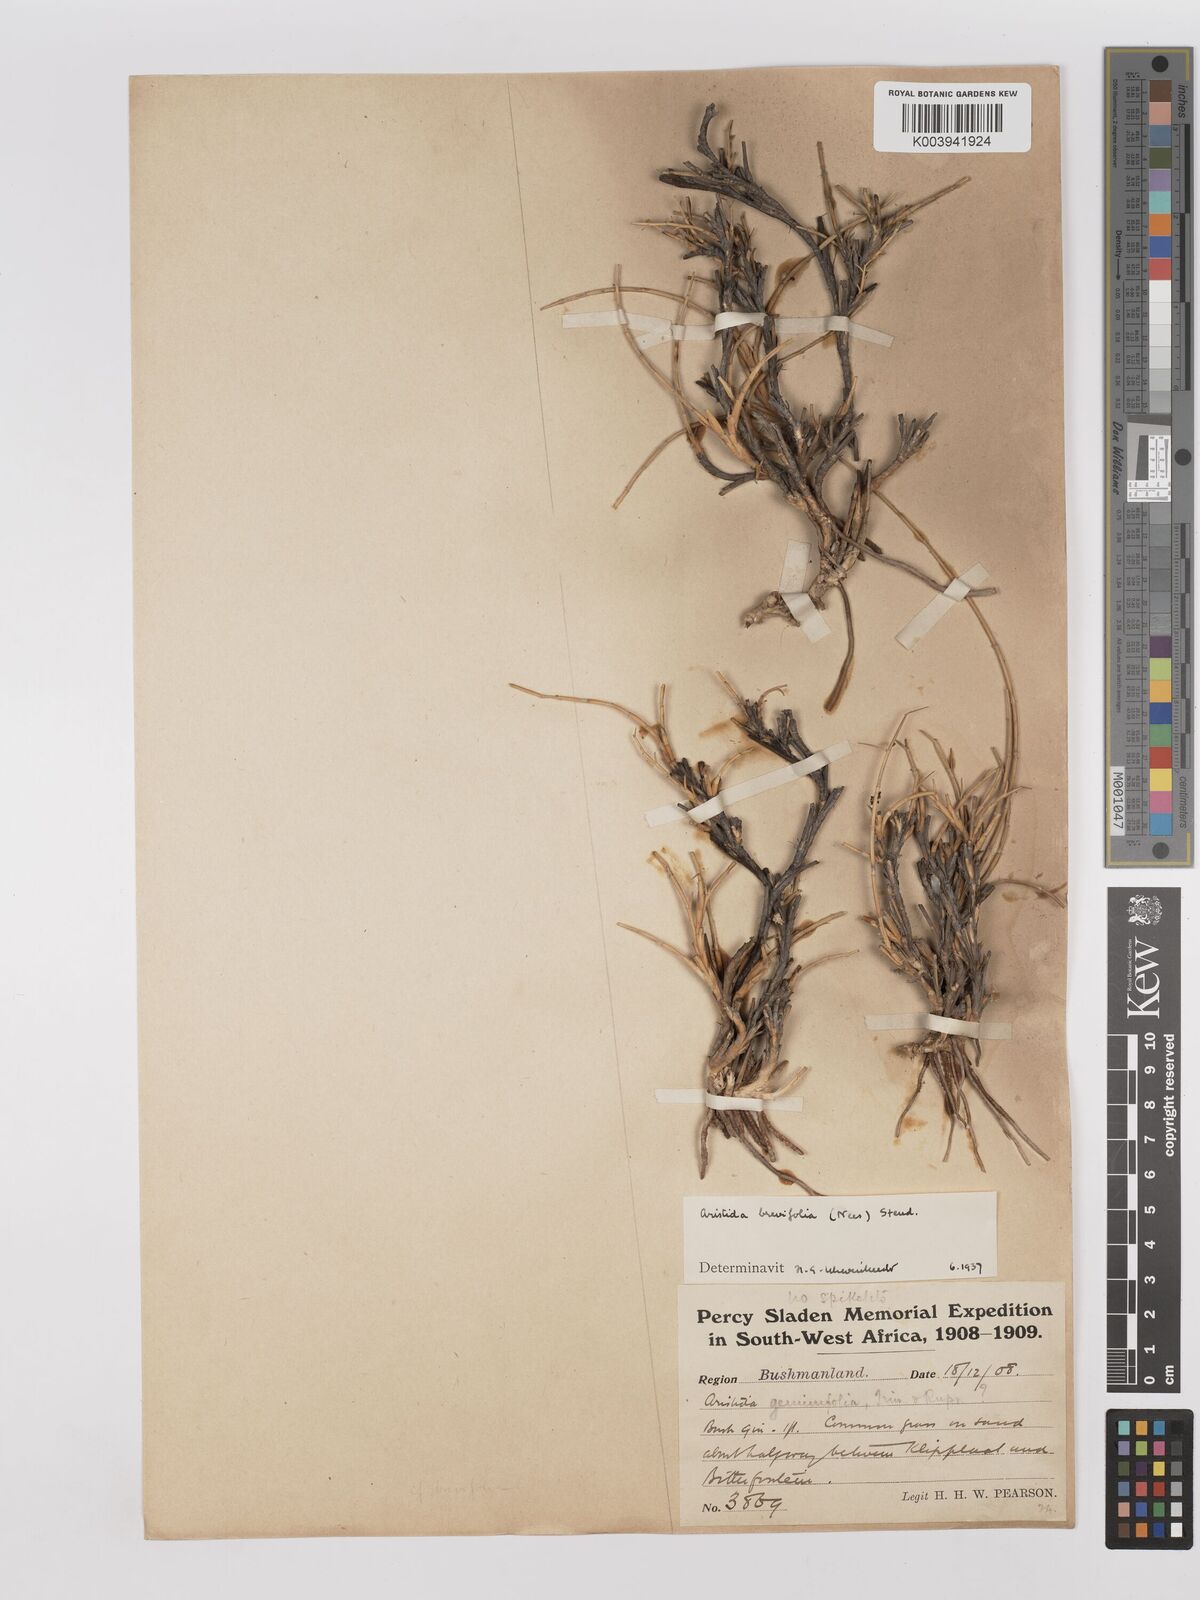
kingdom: Plantae
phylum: Tracheophyta
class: Liliopsida
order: Poales
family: Poaceae
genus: Stipagrostis
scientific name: Stipagrostis brevifolia
